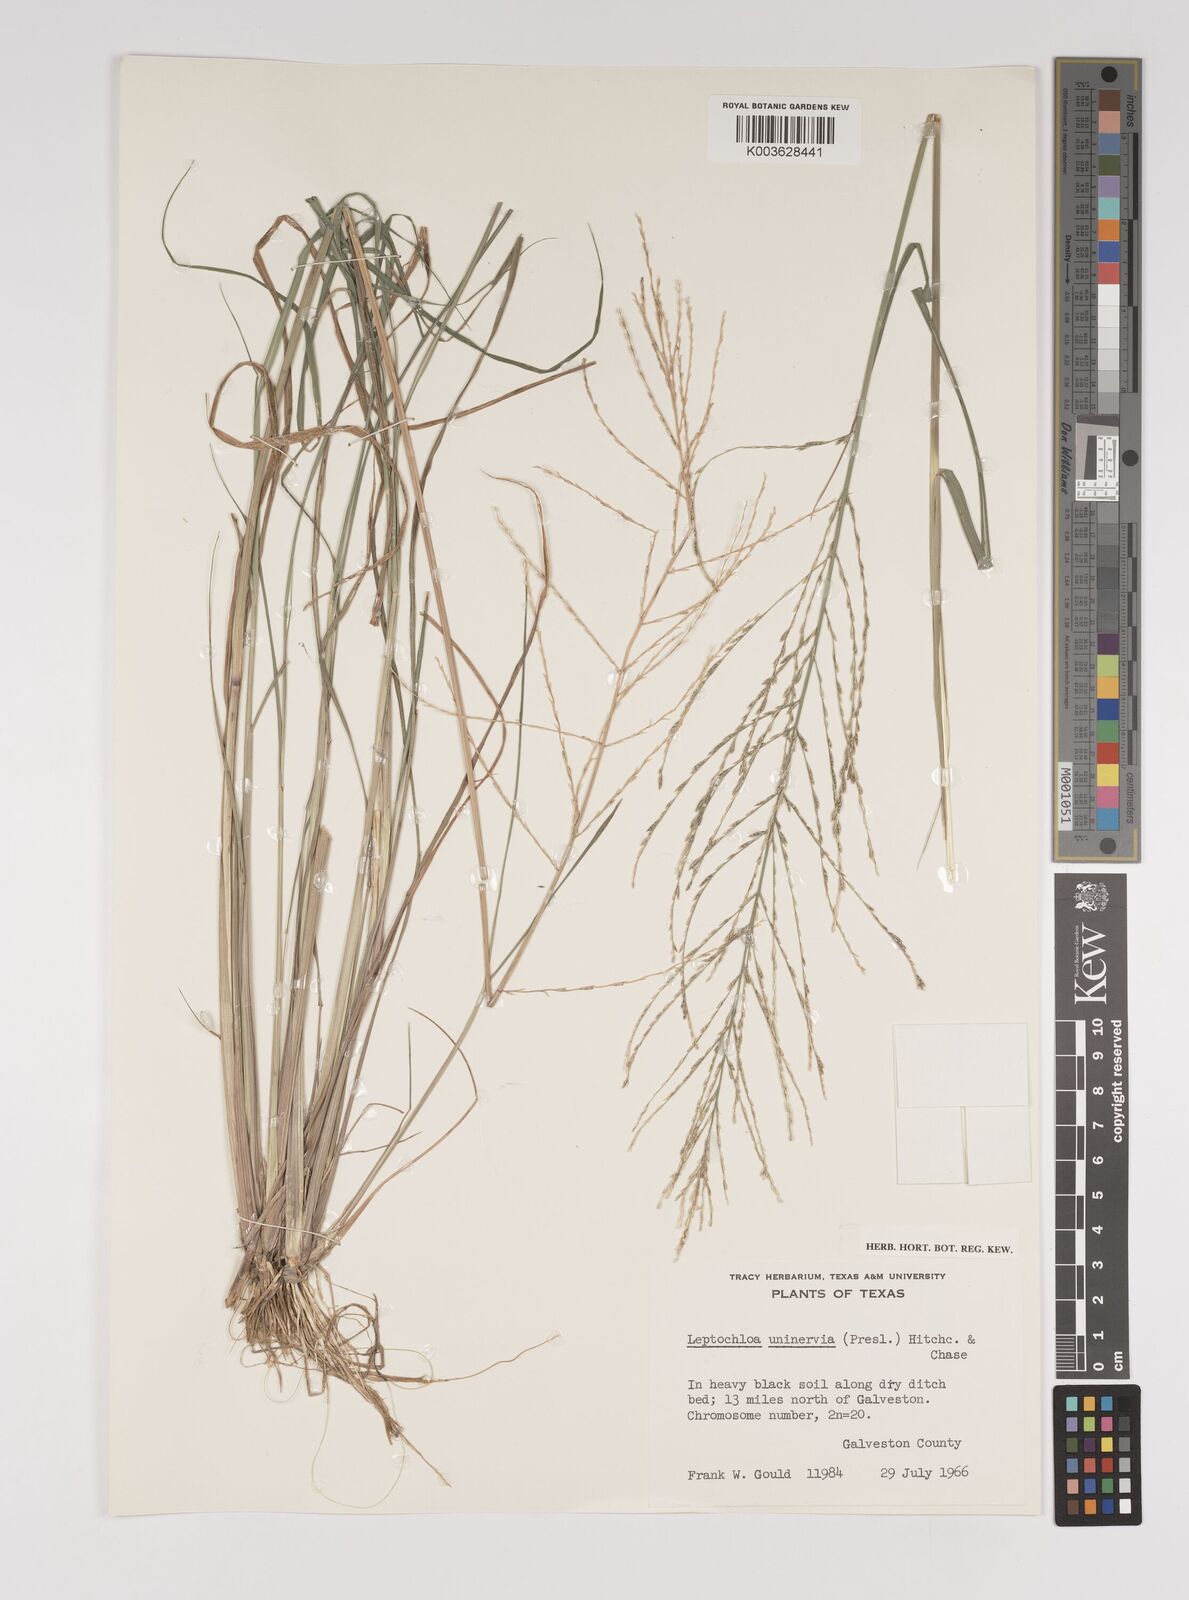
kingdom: Plantae
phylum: Tracheophyta
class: Liliopsida
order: Poales
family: Poaceae
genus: Diplachne
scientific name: Diplachne fusca
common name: Brown beetle grass
